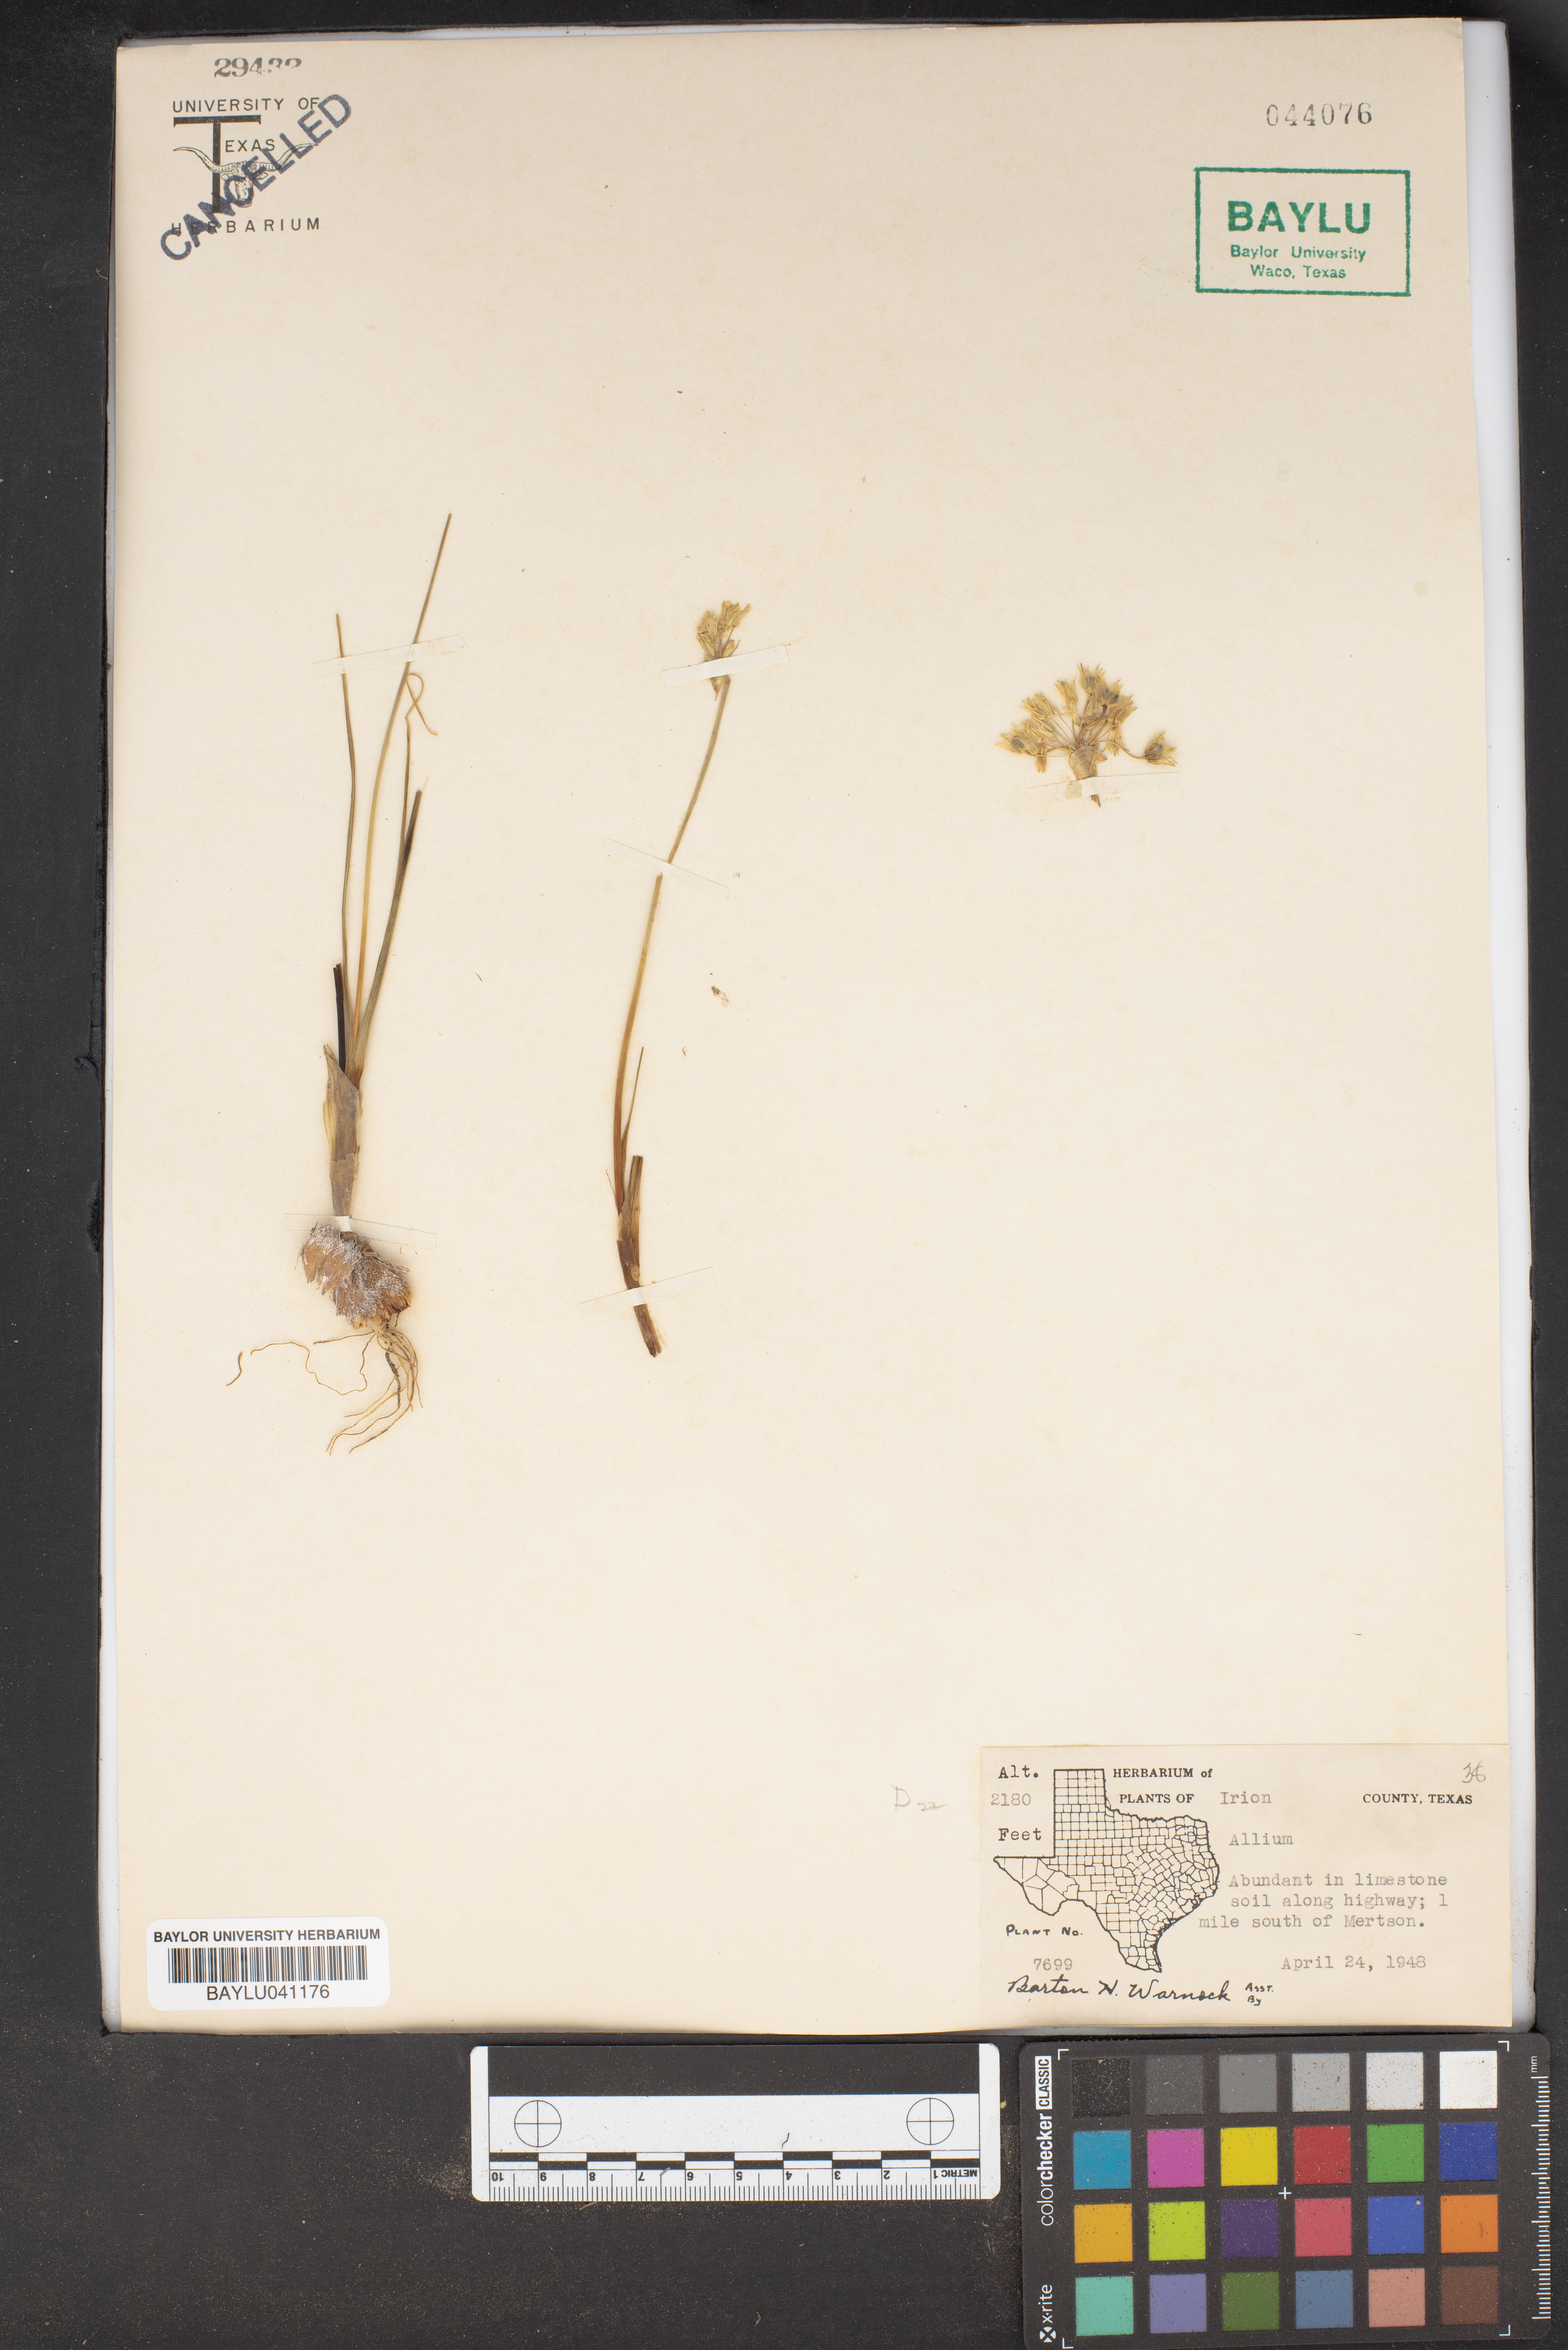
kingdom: Plantae
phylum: Tracheophyta
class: Liliopsida
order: Asparagales
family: Amaryllidaceae
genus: Allium
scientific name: Allium
